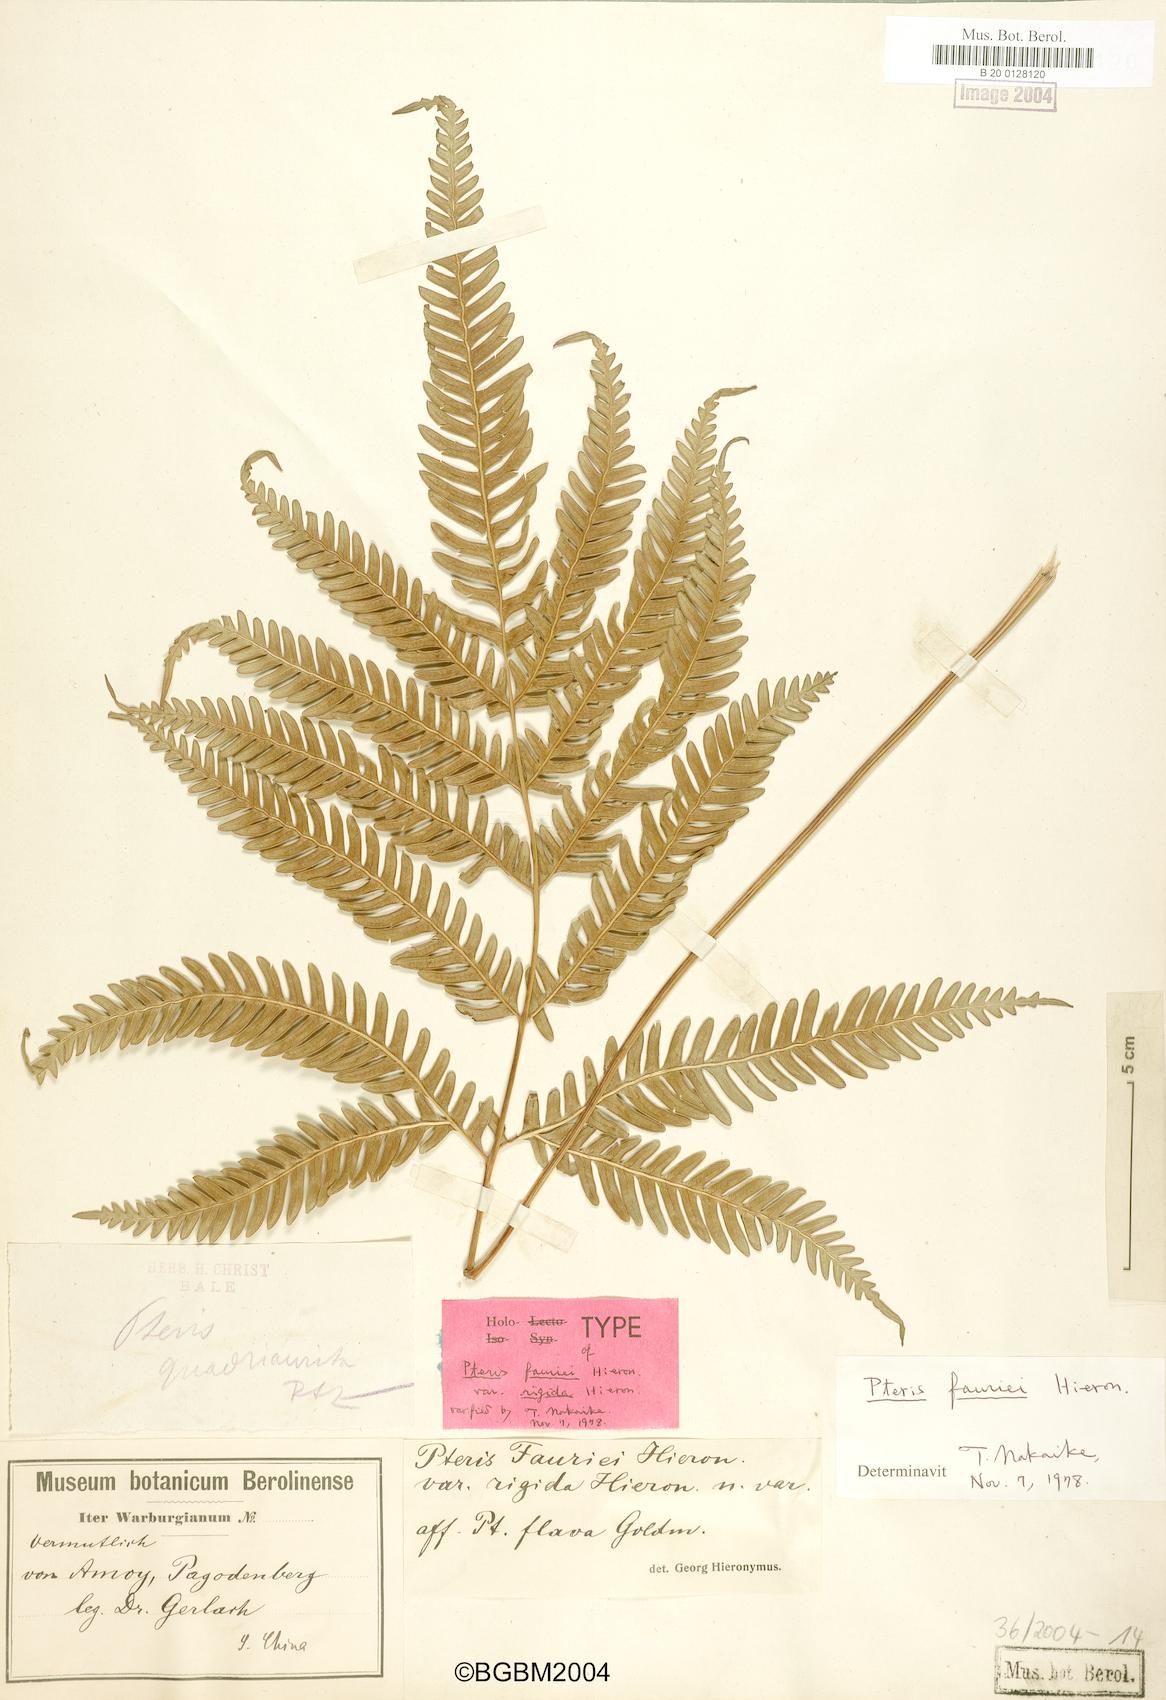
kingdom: Plantae
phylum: Tracheophyta
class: Polypodiopsida
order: Polypodiales
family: Pteridaceae
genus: Pteris
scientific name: Pteris fauriei
